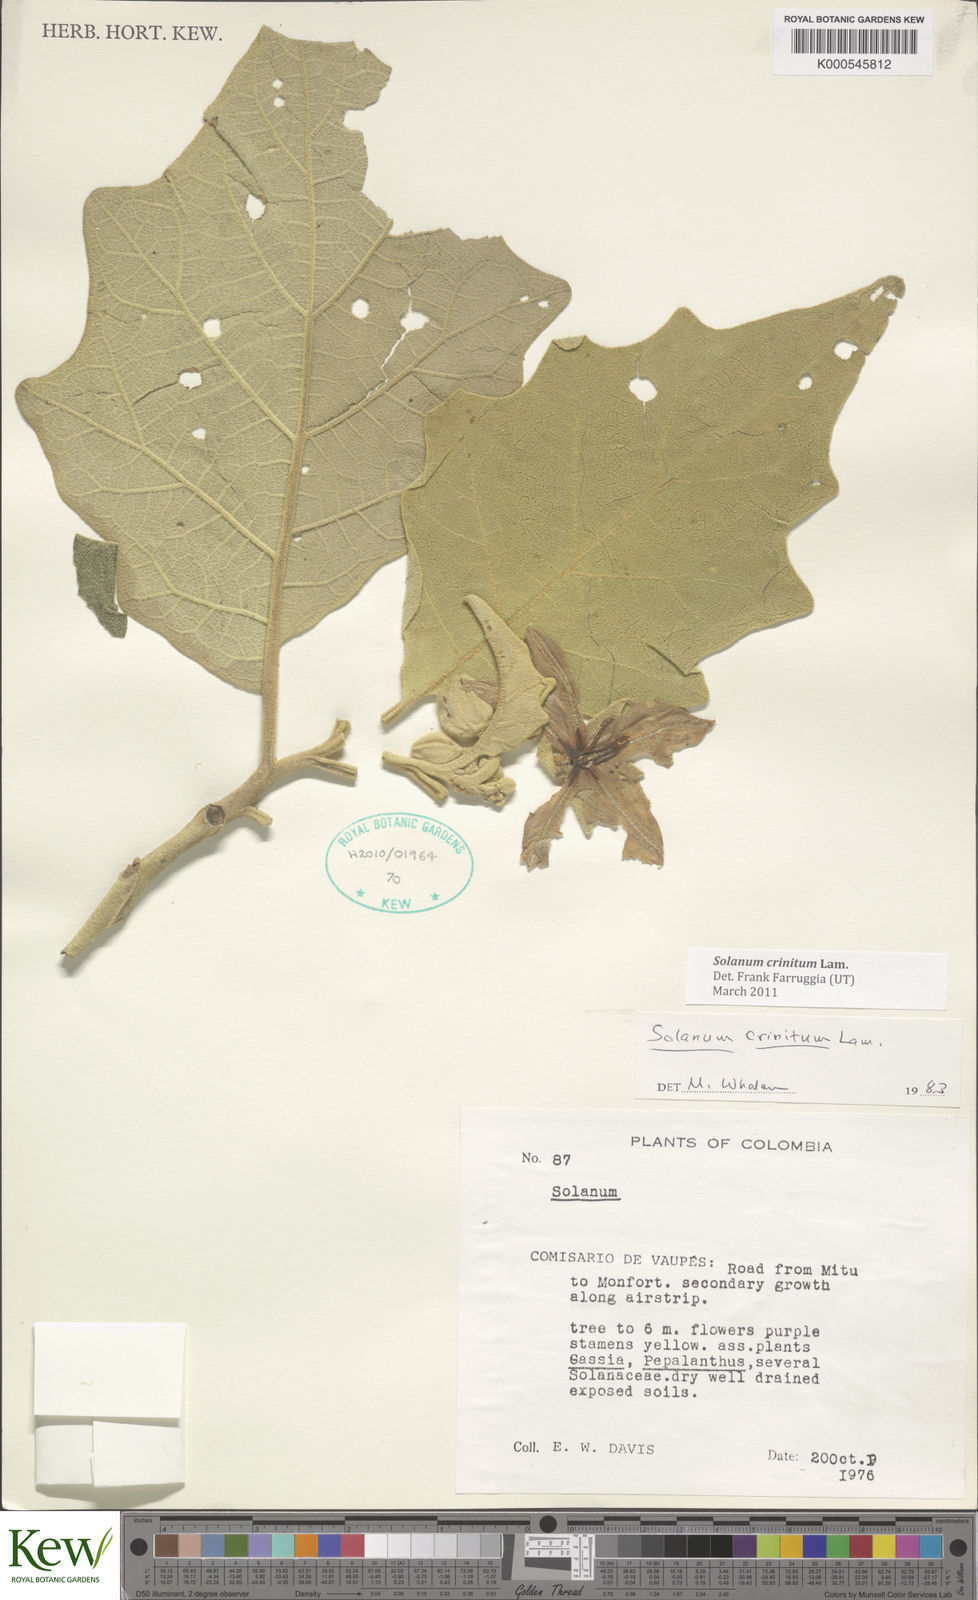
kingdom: Plantae
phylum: Tracheophyta
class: Magnoliopsida
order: Solanales
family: Solanaceae
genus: Solanum
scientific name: Solanum crinitum
